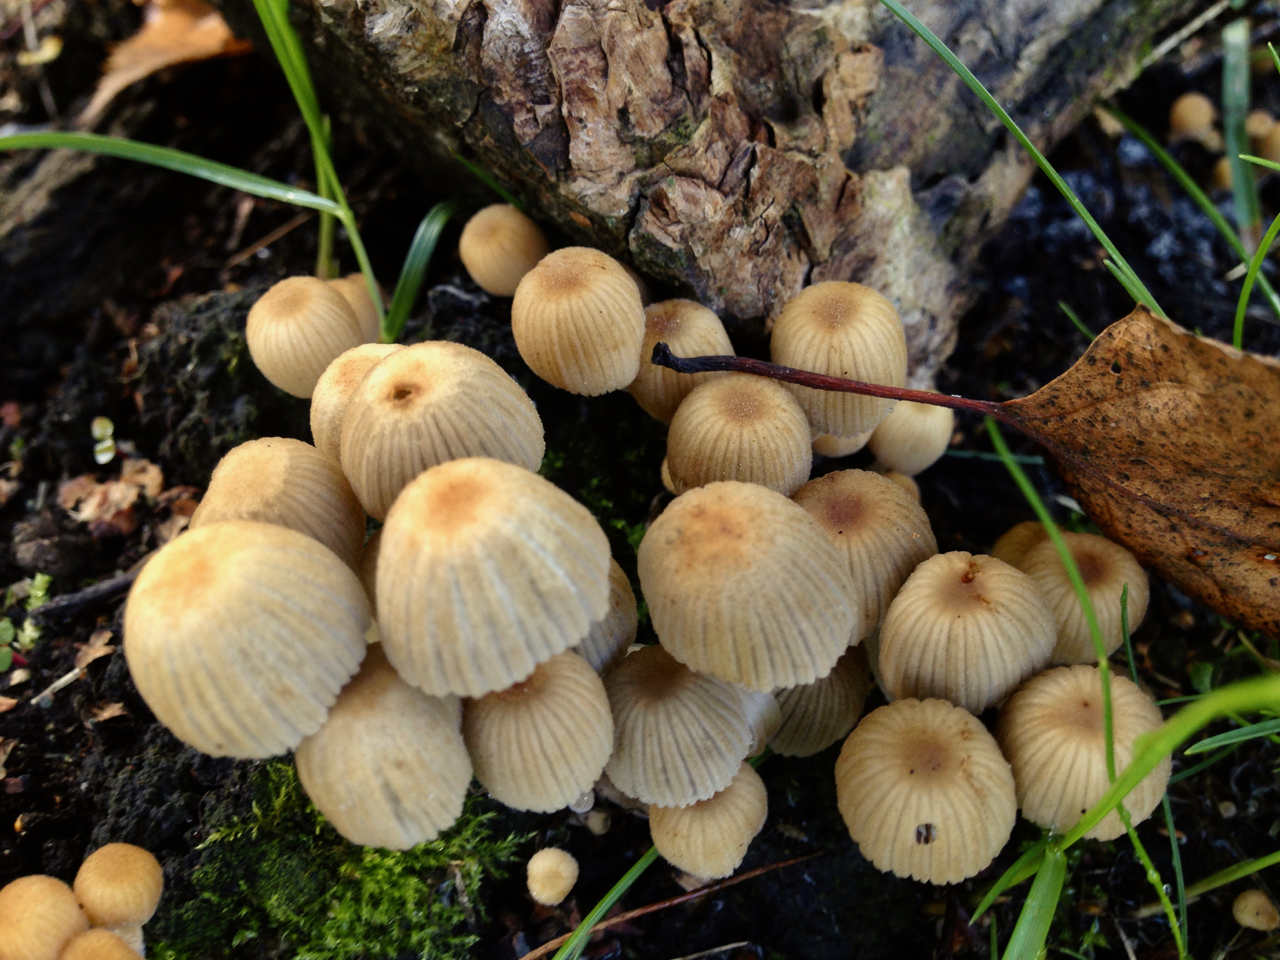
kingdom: Fungi
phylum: Basidiomycota
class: Agaricomycetes
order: Agaricales
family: Psathyrellaceae
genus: Coprinellus
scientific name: Coprinellus disseminatus
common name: Fairies' bonnets
